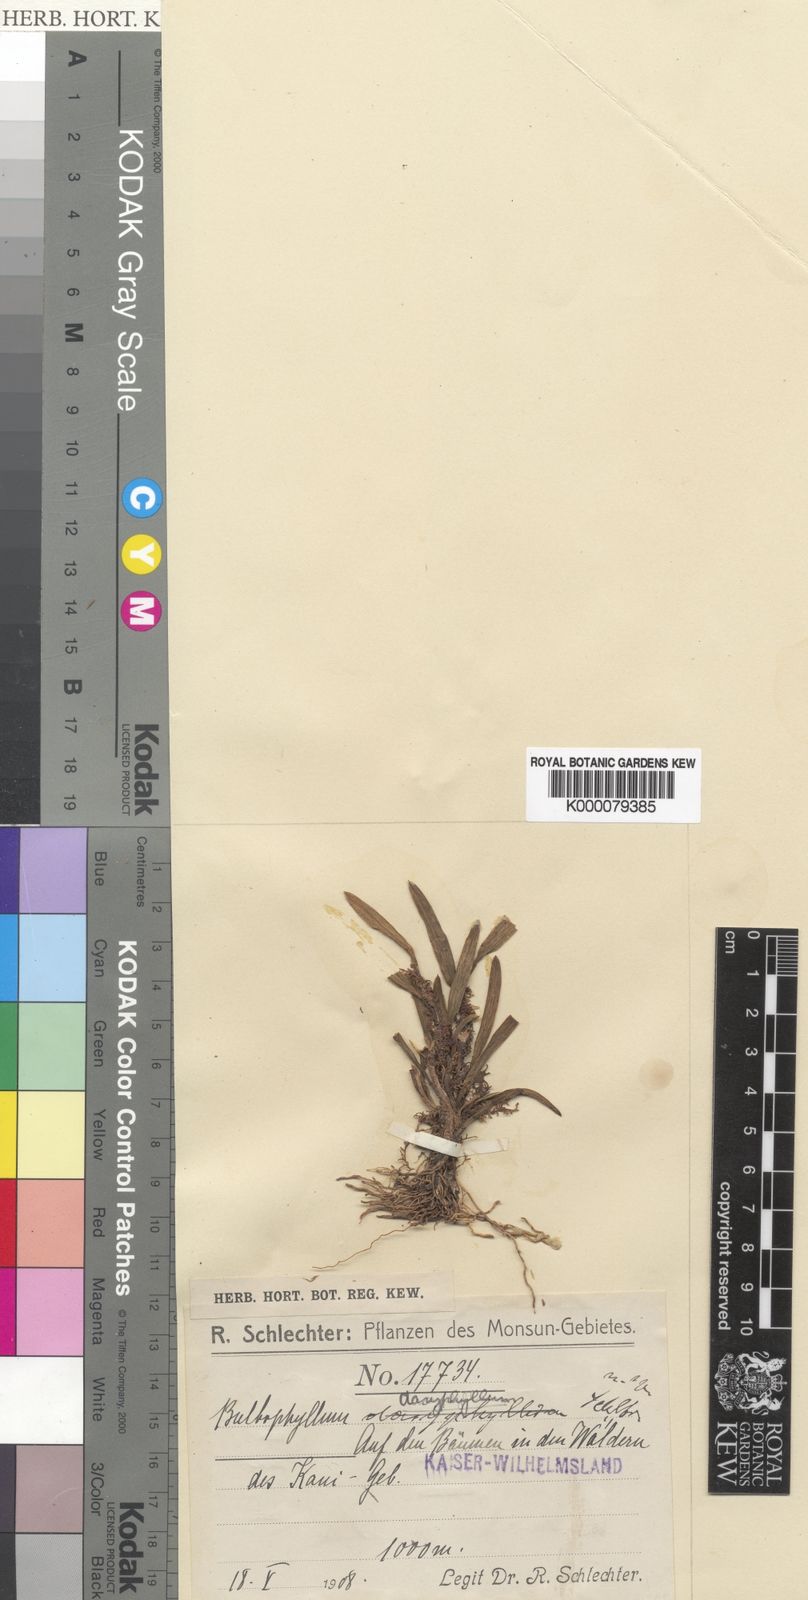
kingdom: Plantae
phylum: Tracheophyta
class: Liliopsida
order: Asparagales
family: Orchidaceae
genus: Bulbophyllum
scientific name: Bulbophyllum betchei
